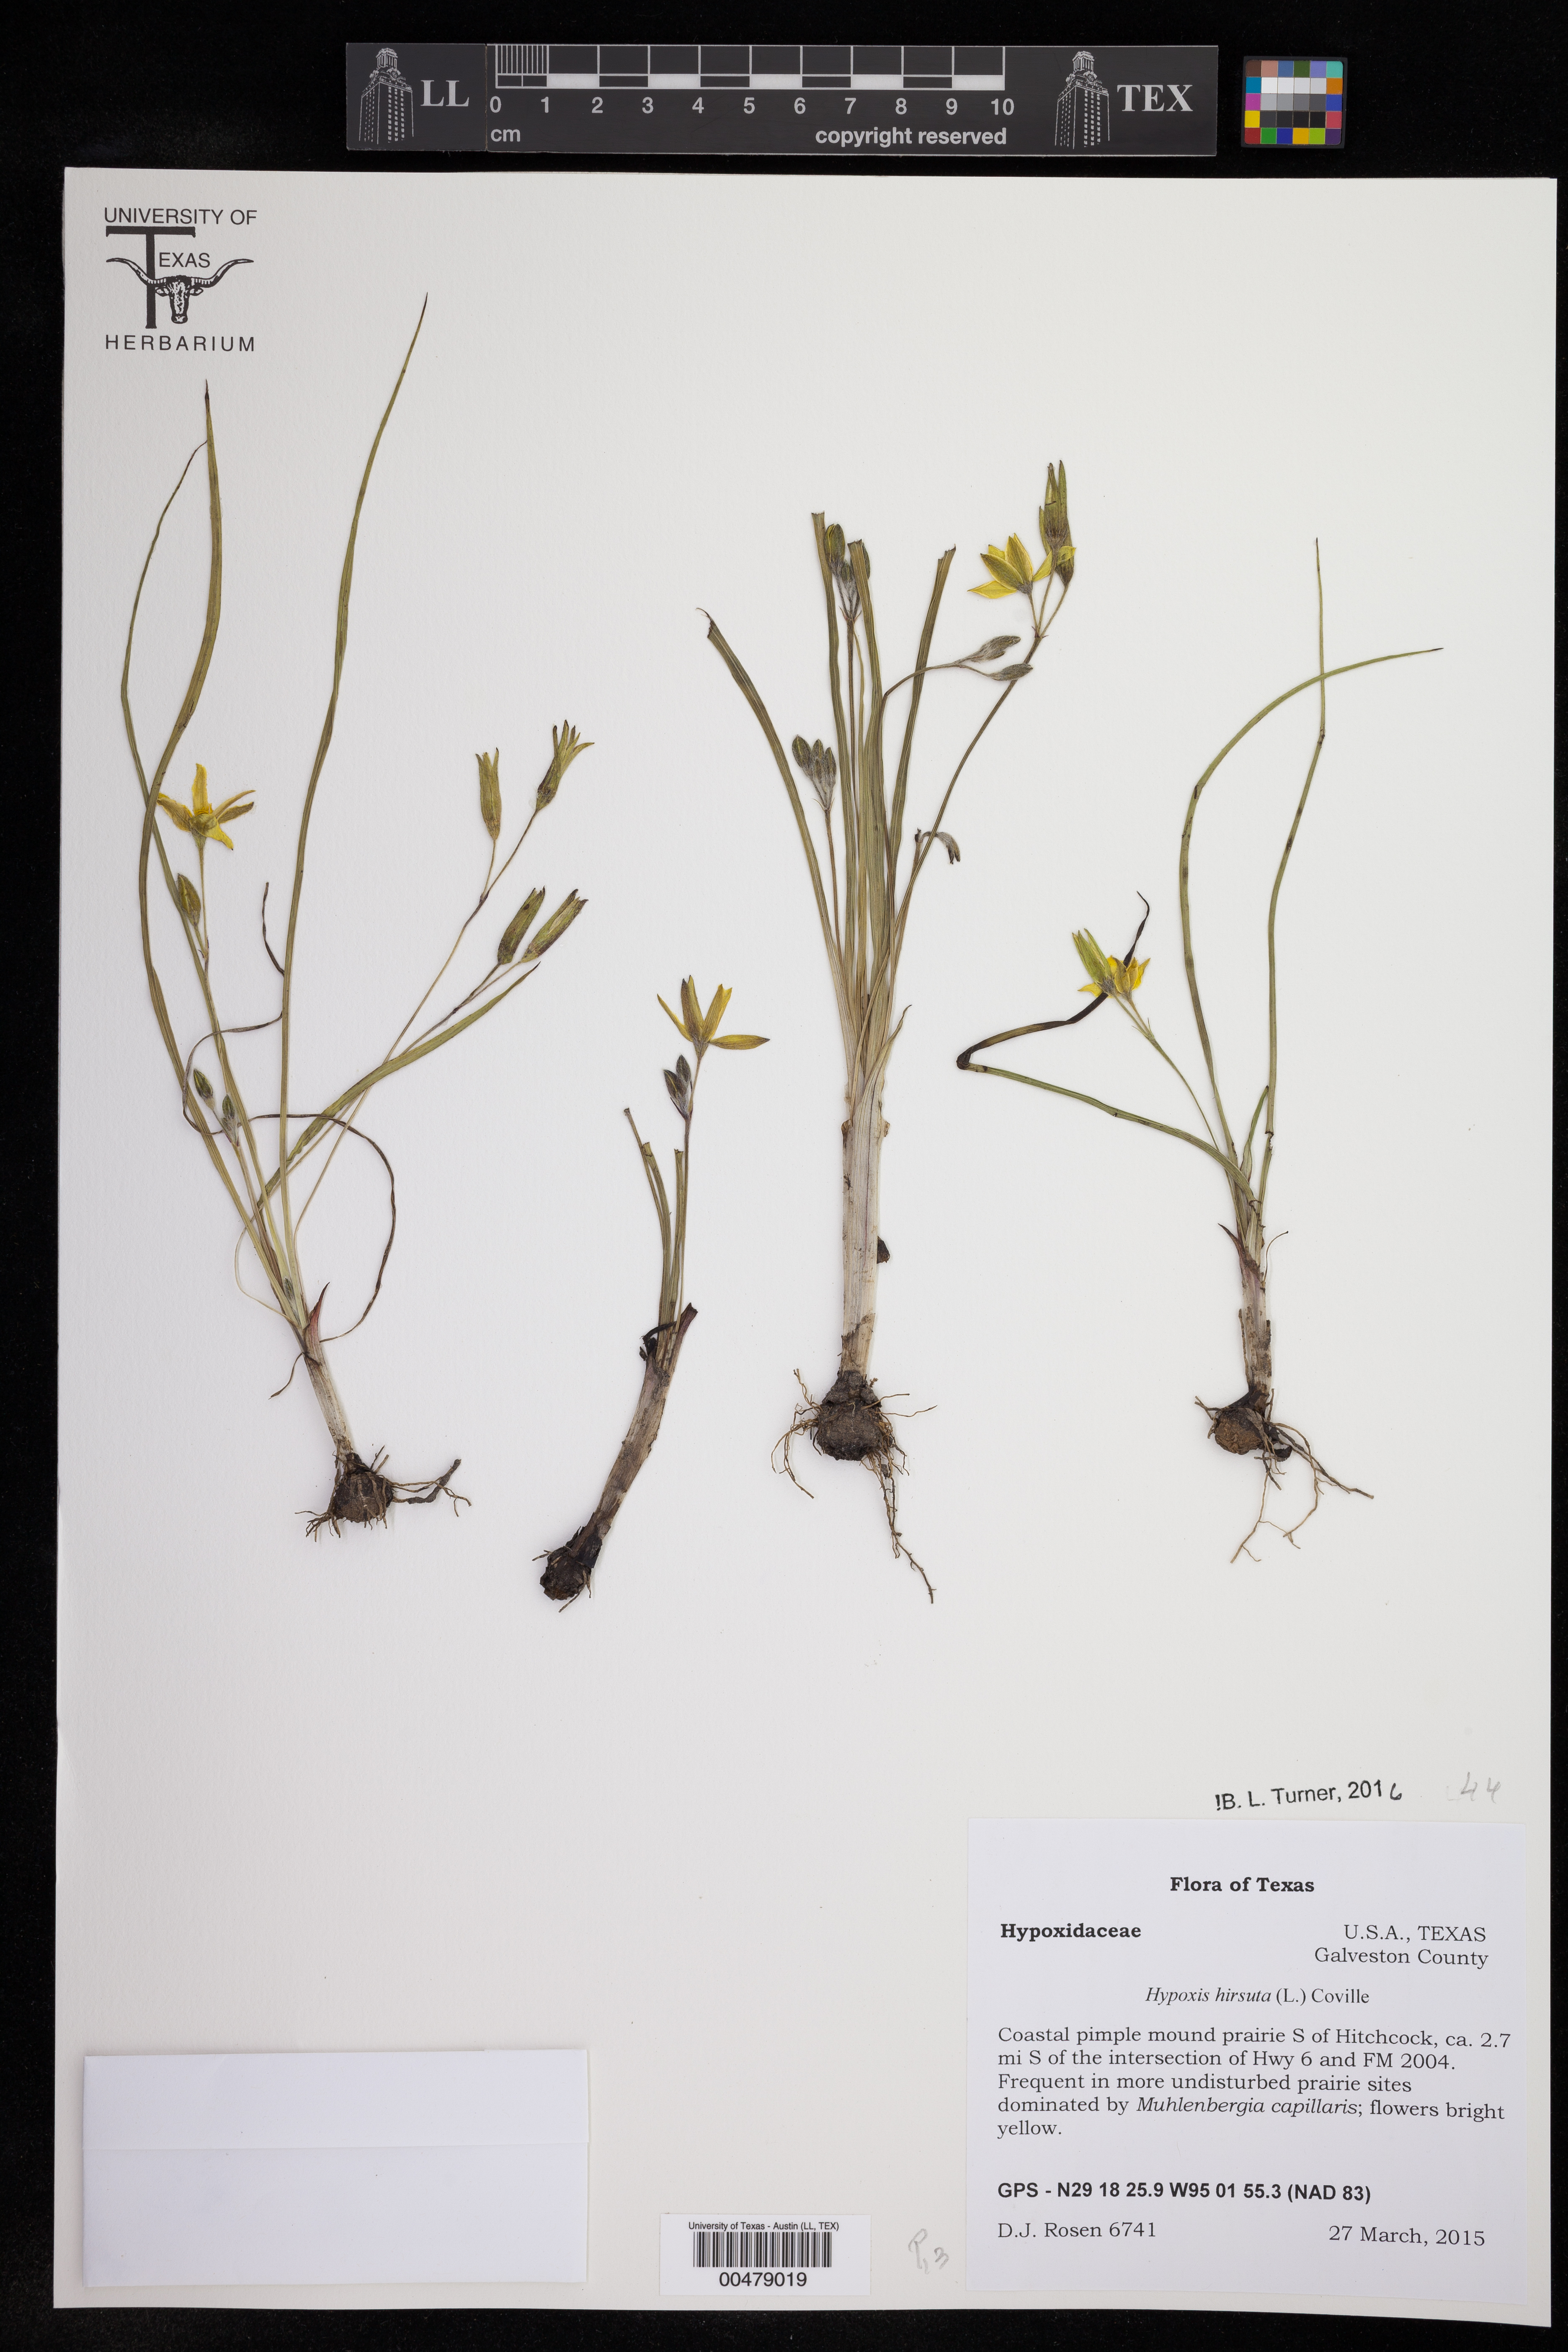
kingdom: Plantae
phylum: Tracheophyta
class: Liliopsida
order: Asparagales
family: Hypoxidaceae
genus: Hypoxis
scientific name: Hypoxis hirsuta
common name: Common goldstar
